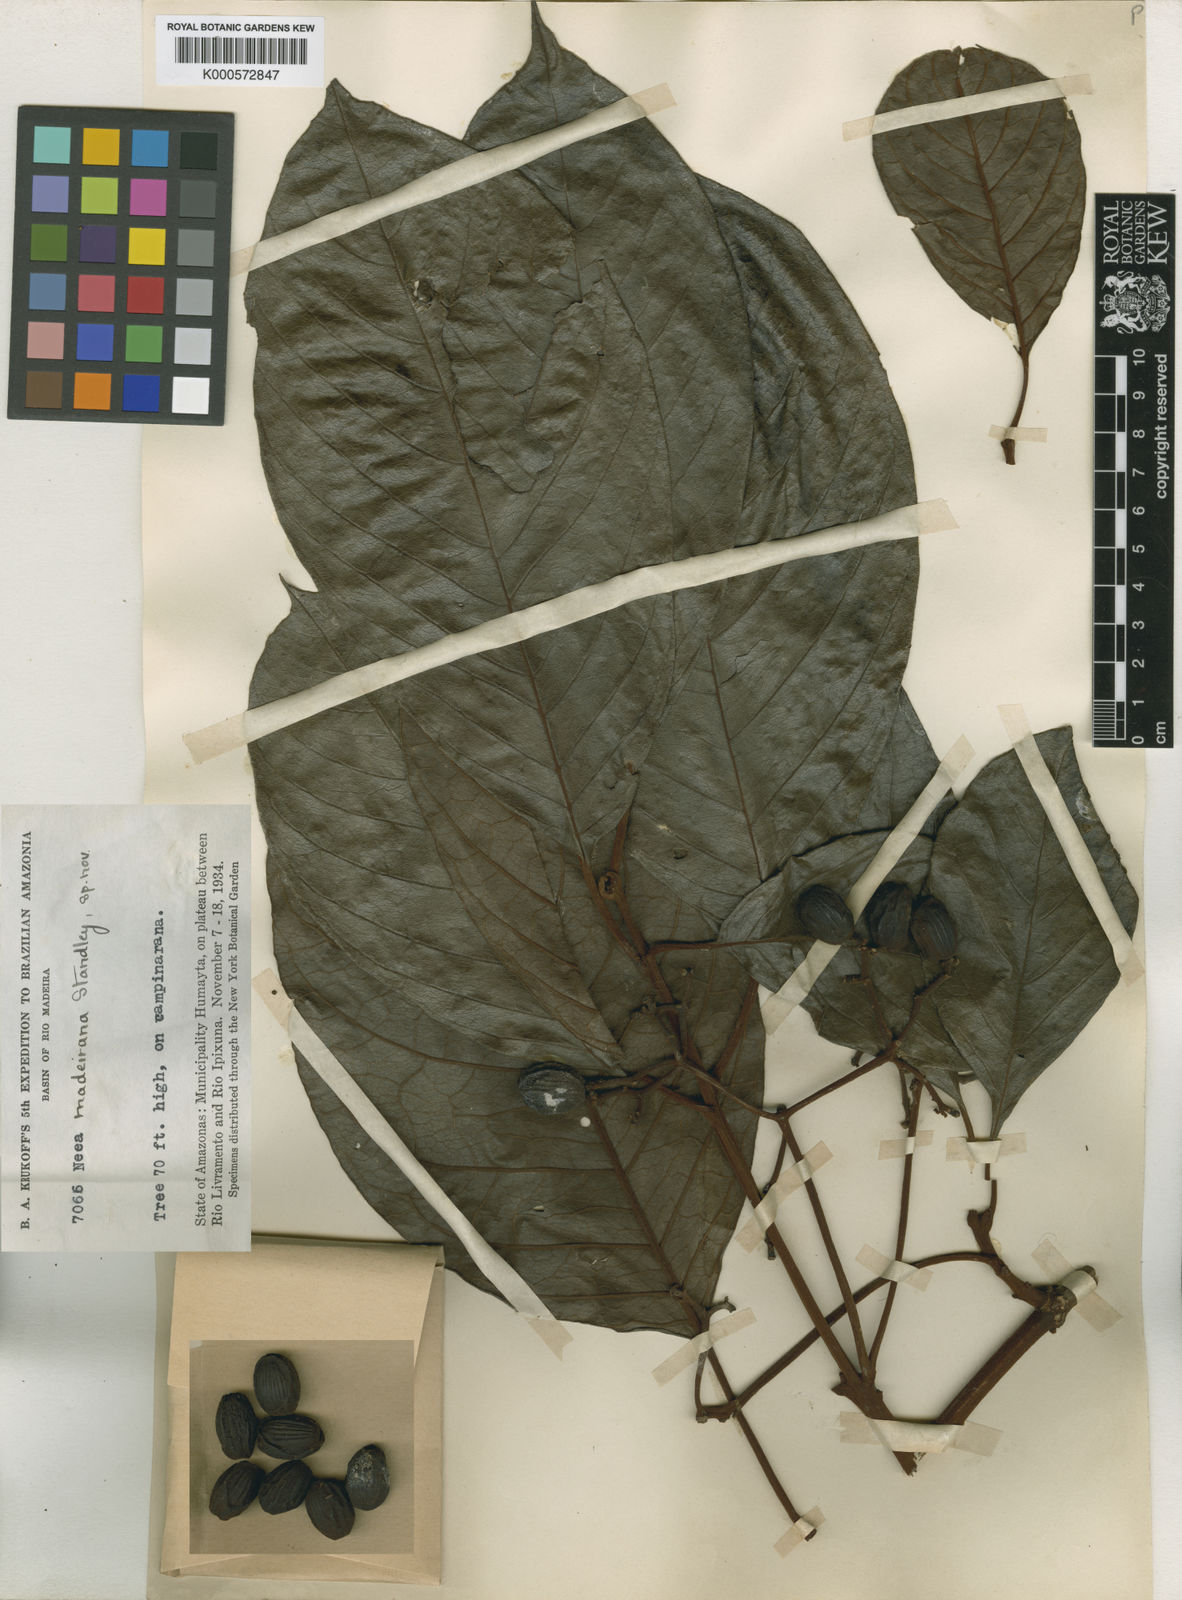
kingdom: Plantae
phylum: Tracheophyta
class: Magnoliopsida
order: Caryophyllales
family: Nyctaginaceae
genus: Neea
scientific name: Neea madeirana
